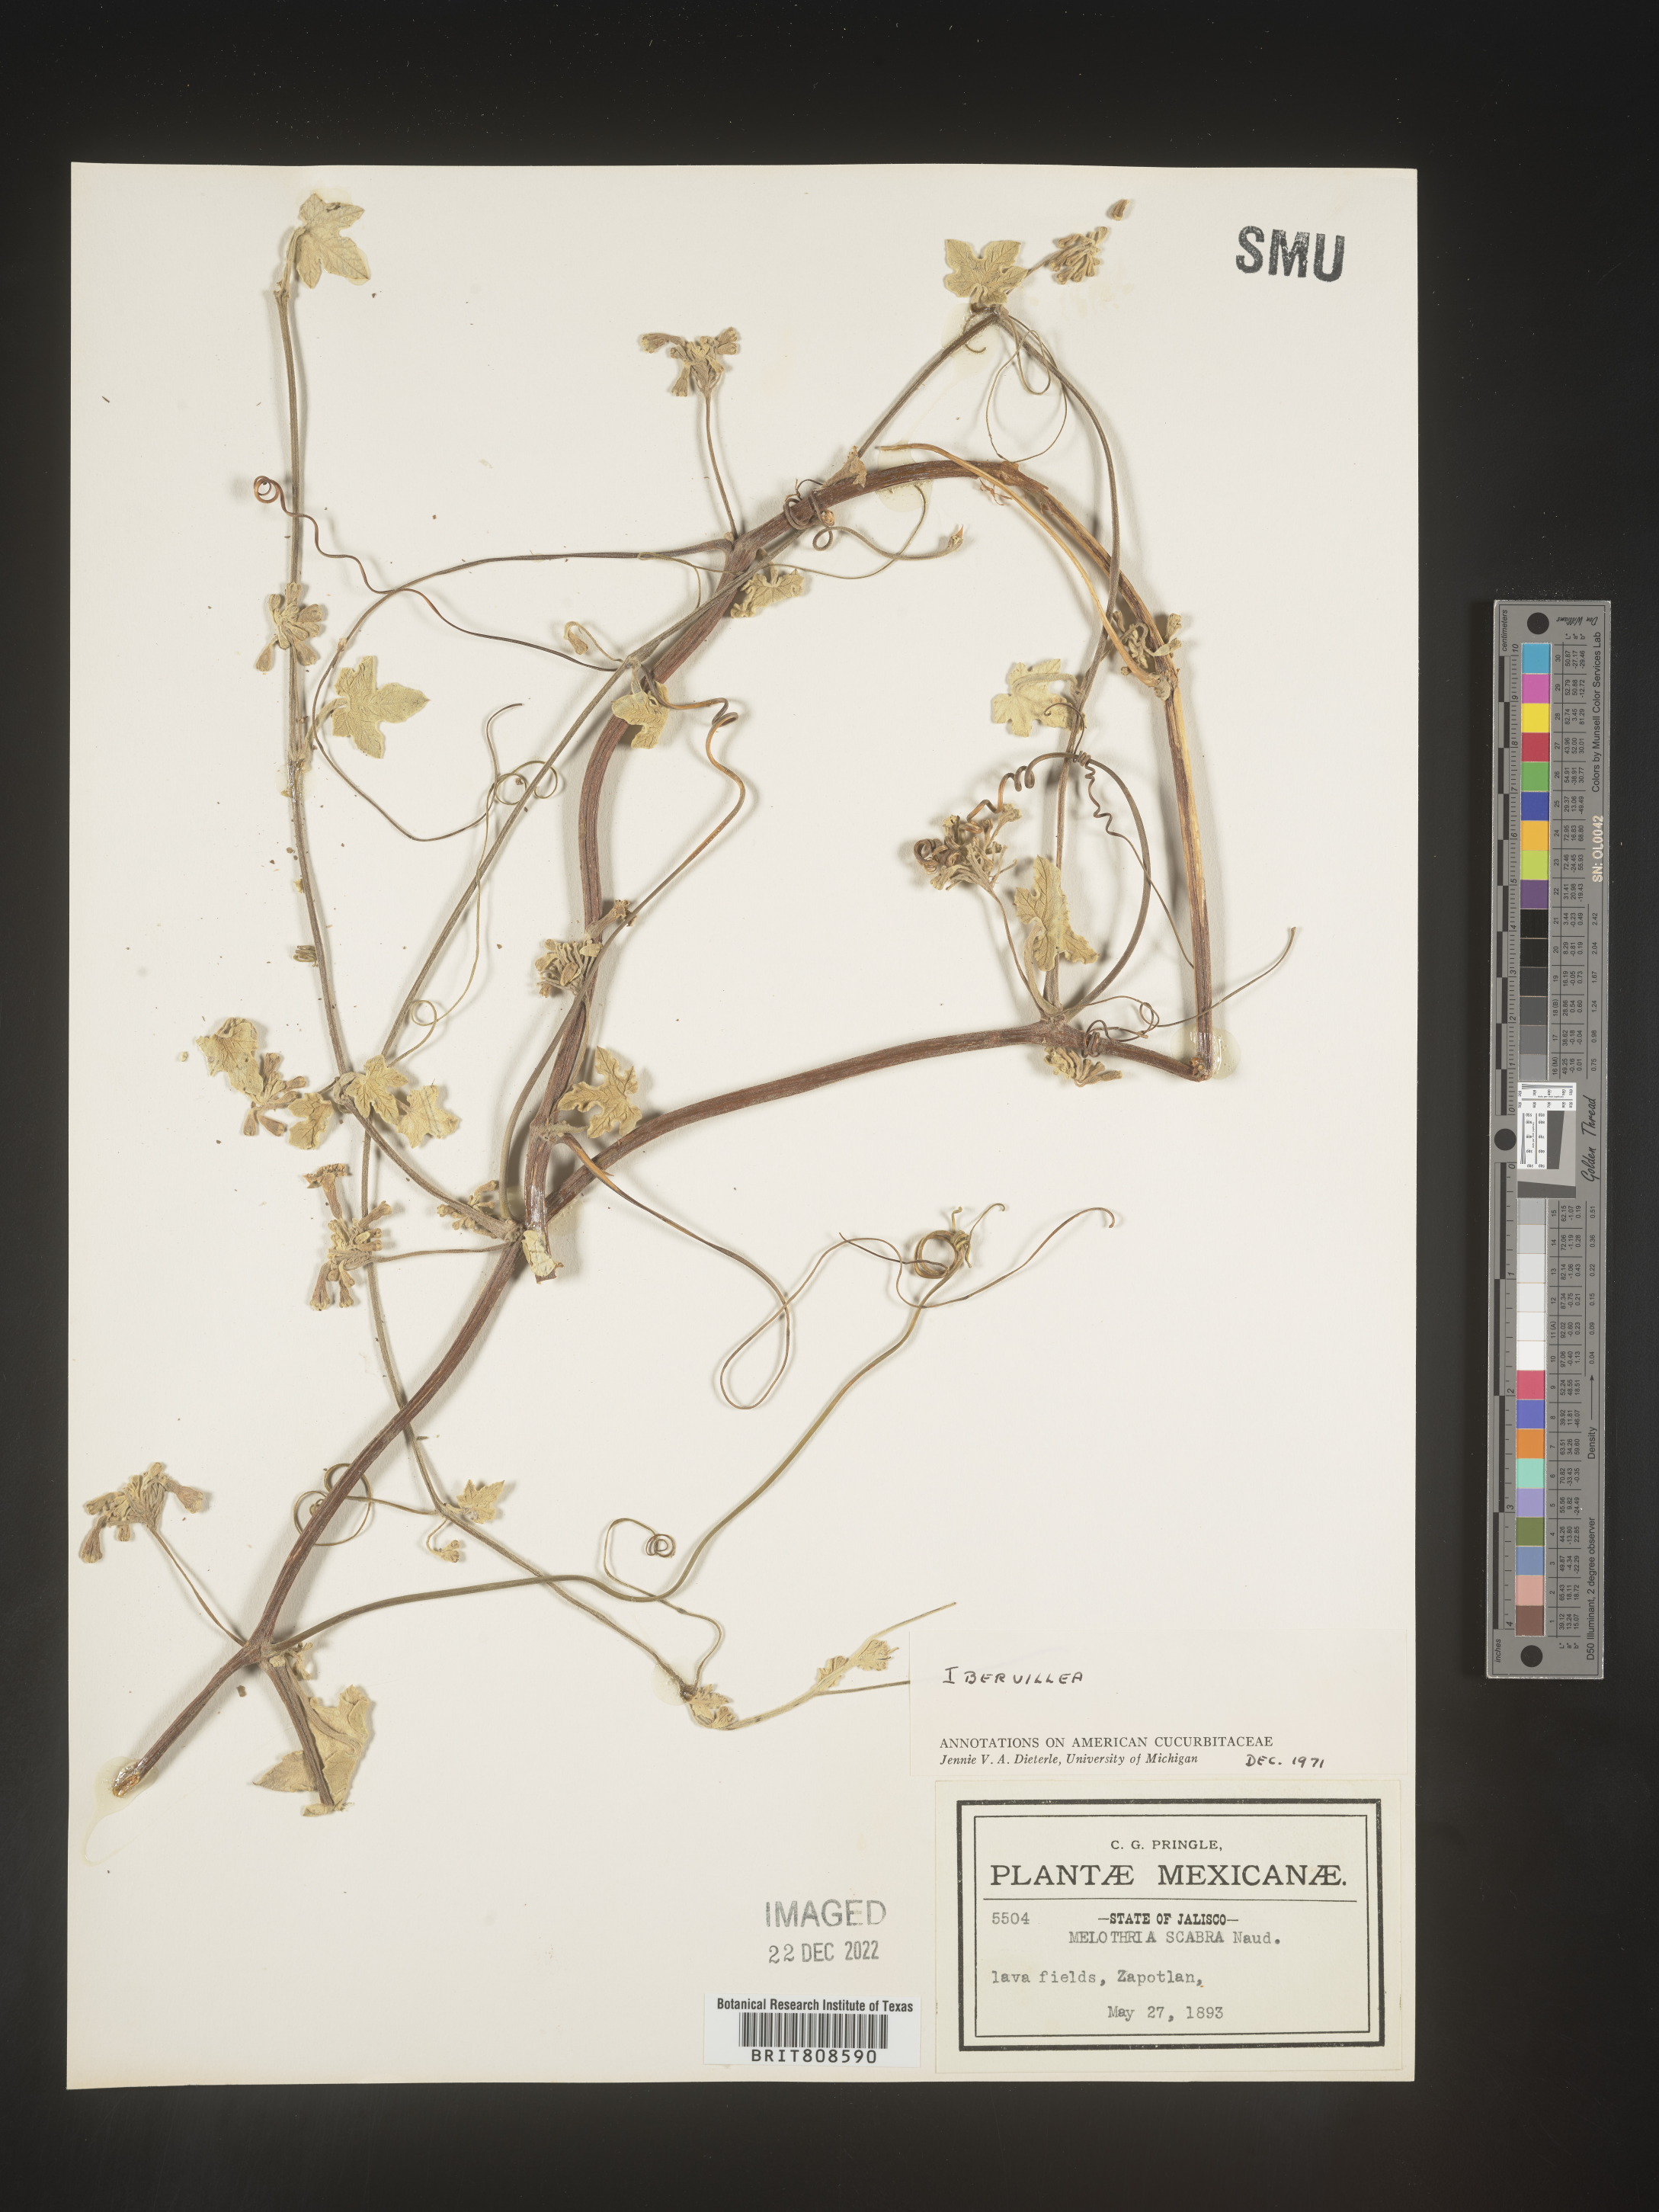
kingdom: Plantae
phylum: Tracheophyta
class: Magnoliopsida
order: Cucurbitales
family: Cucurbitaceae
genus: Ibervillea
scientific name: Ibervillea
